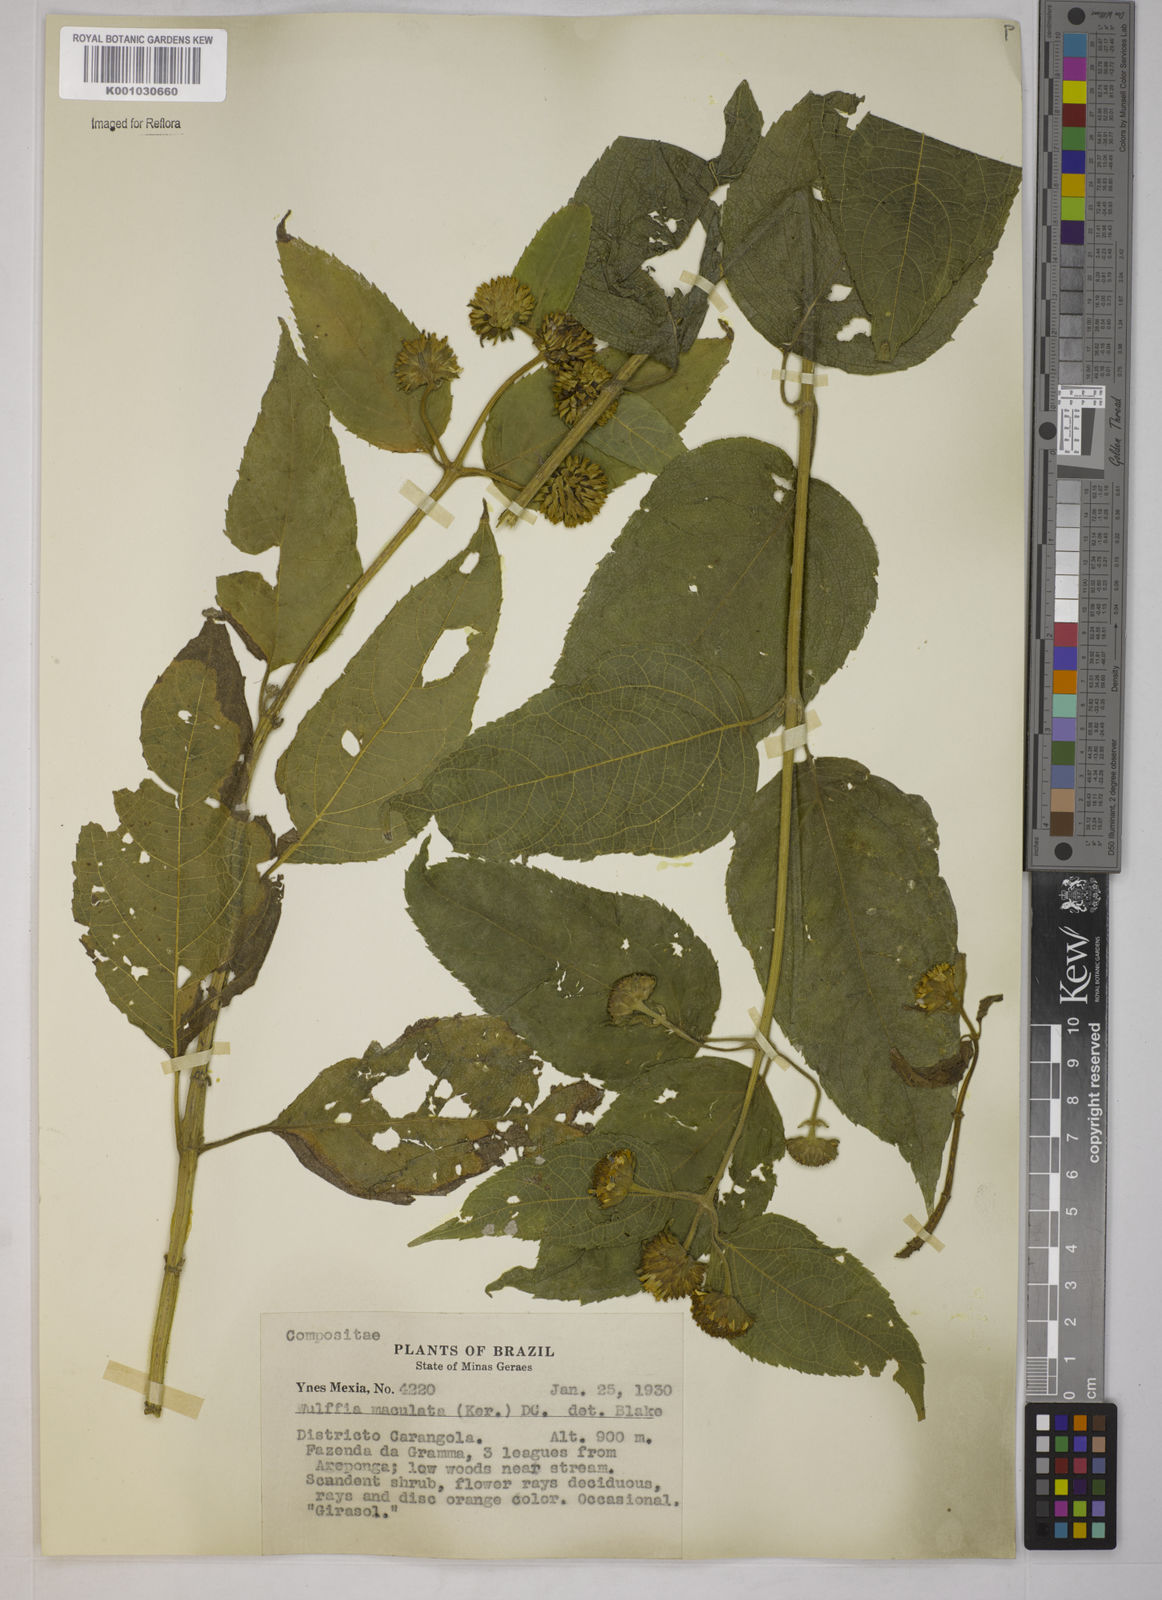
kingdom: Plantae
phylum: Tracheophyta
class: Magnoliopsida
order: Asterales
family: Asteraceae
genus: Tilesia
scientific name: Tilesia baccata
